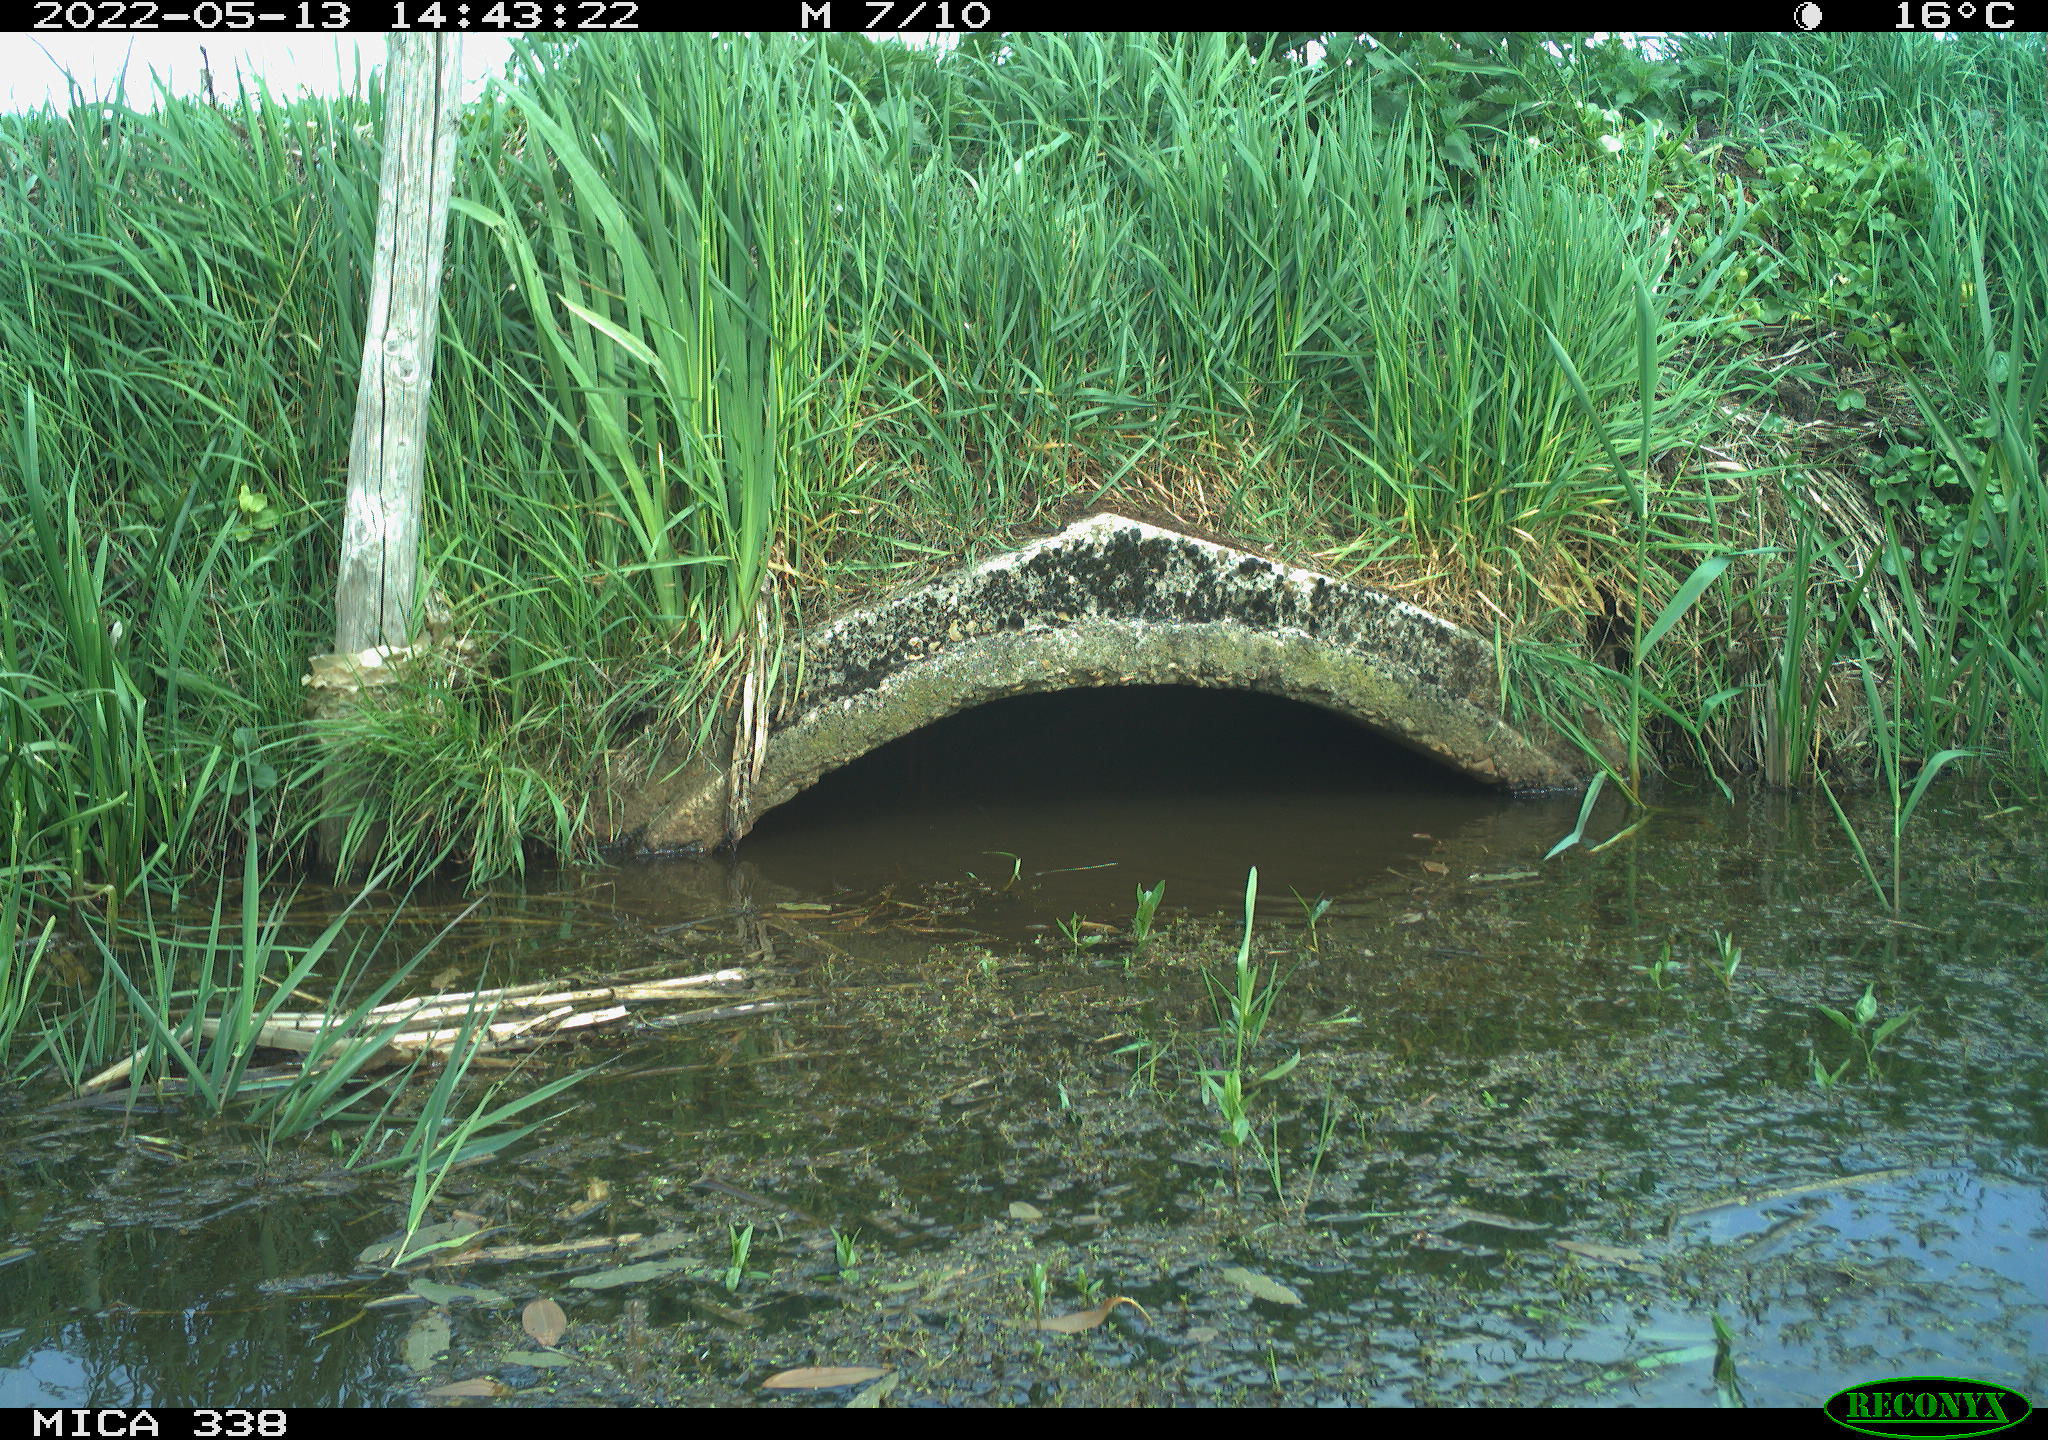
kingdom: Animalia
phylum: Chordata
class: Mammalia
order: Rodentia
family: Muridae
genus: Rattus
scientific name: Rattus norvegicus
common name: Brown rat
